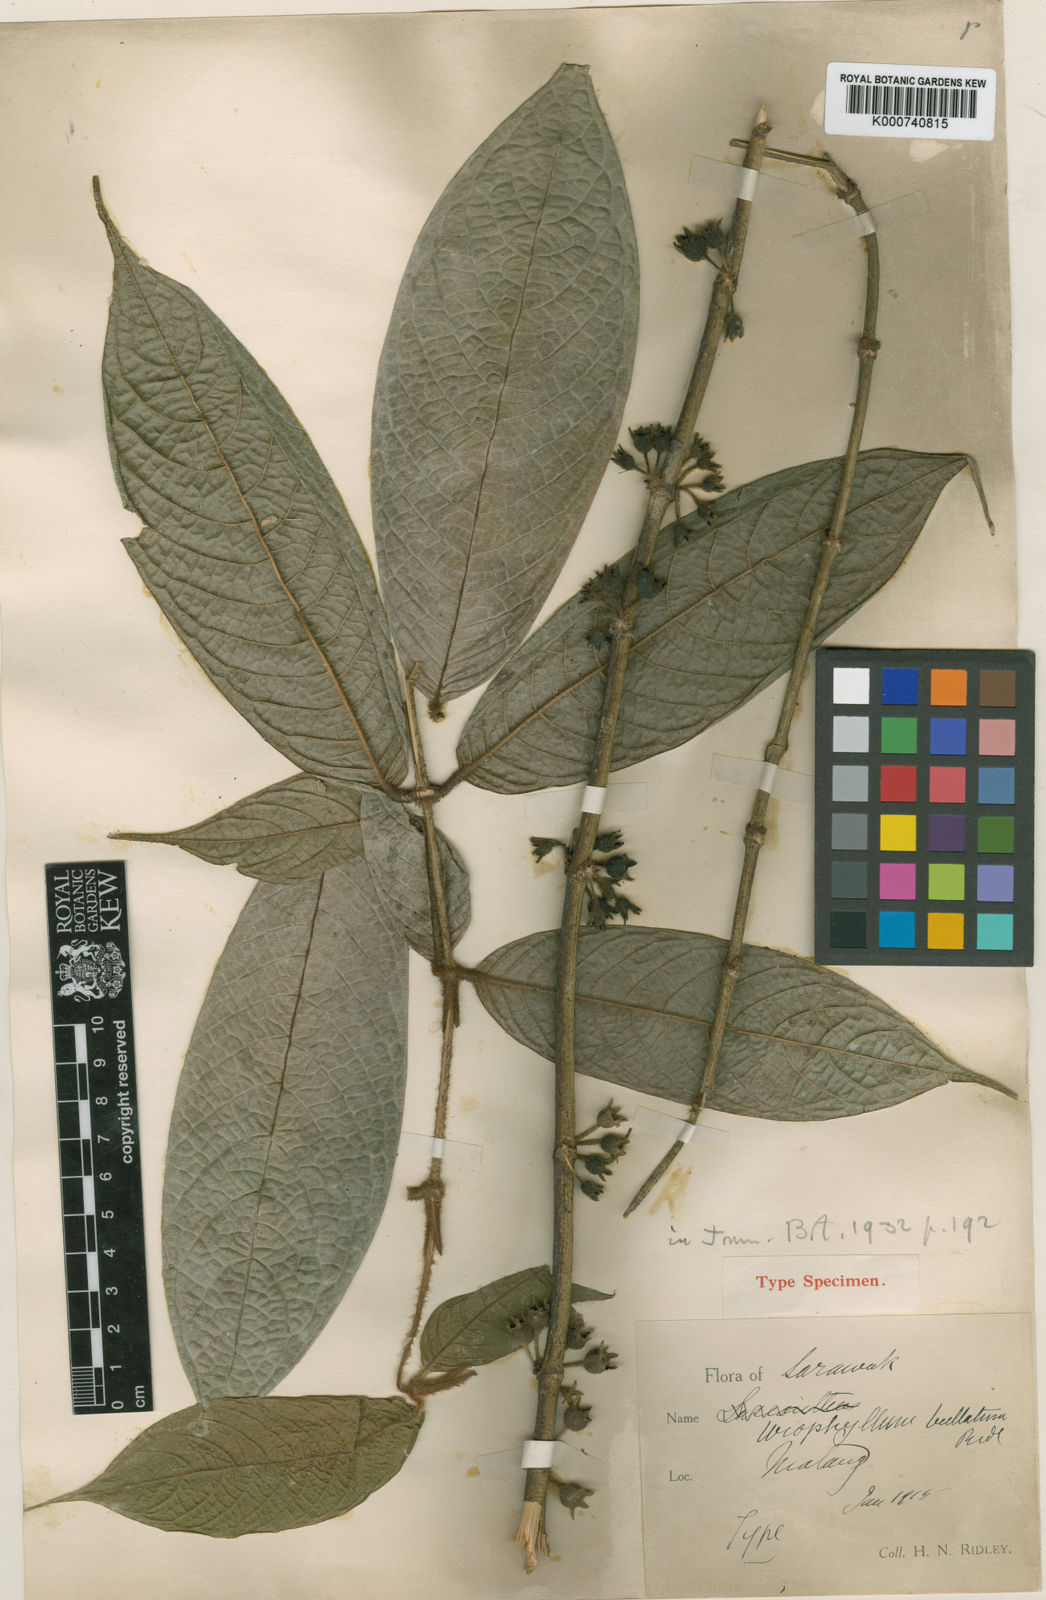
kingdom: Plantae
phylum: Tracheophyta
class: Magnoliopsida
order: Gentianales
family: Rubiaceae
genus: Urophyllum
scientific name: Urophyllum bullatum
